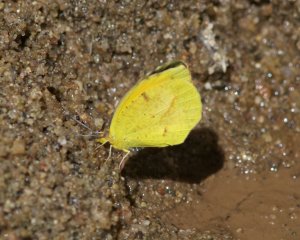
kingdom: Animalia
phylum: Arthropoda
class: Insecta
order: Lepidoptera
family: Pieridae
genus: Abaeis
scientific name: Abaeis nicippe
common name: Sleepy Orange
